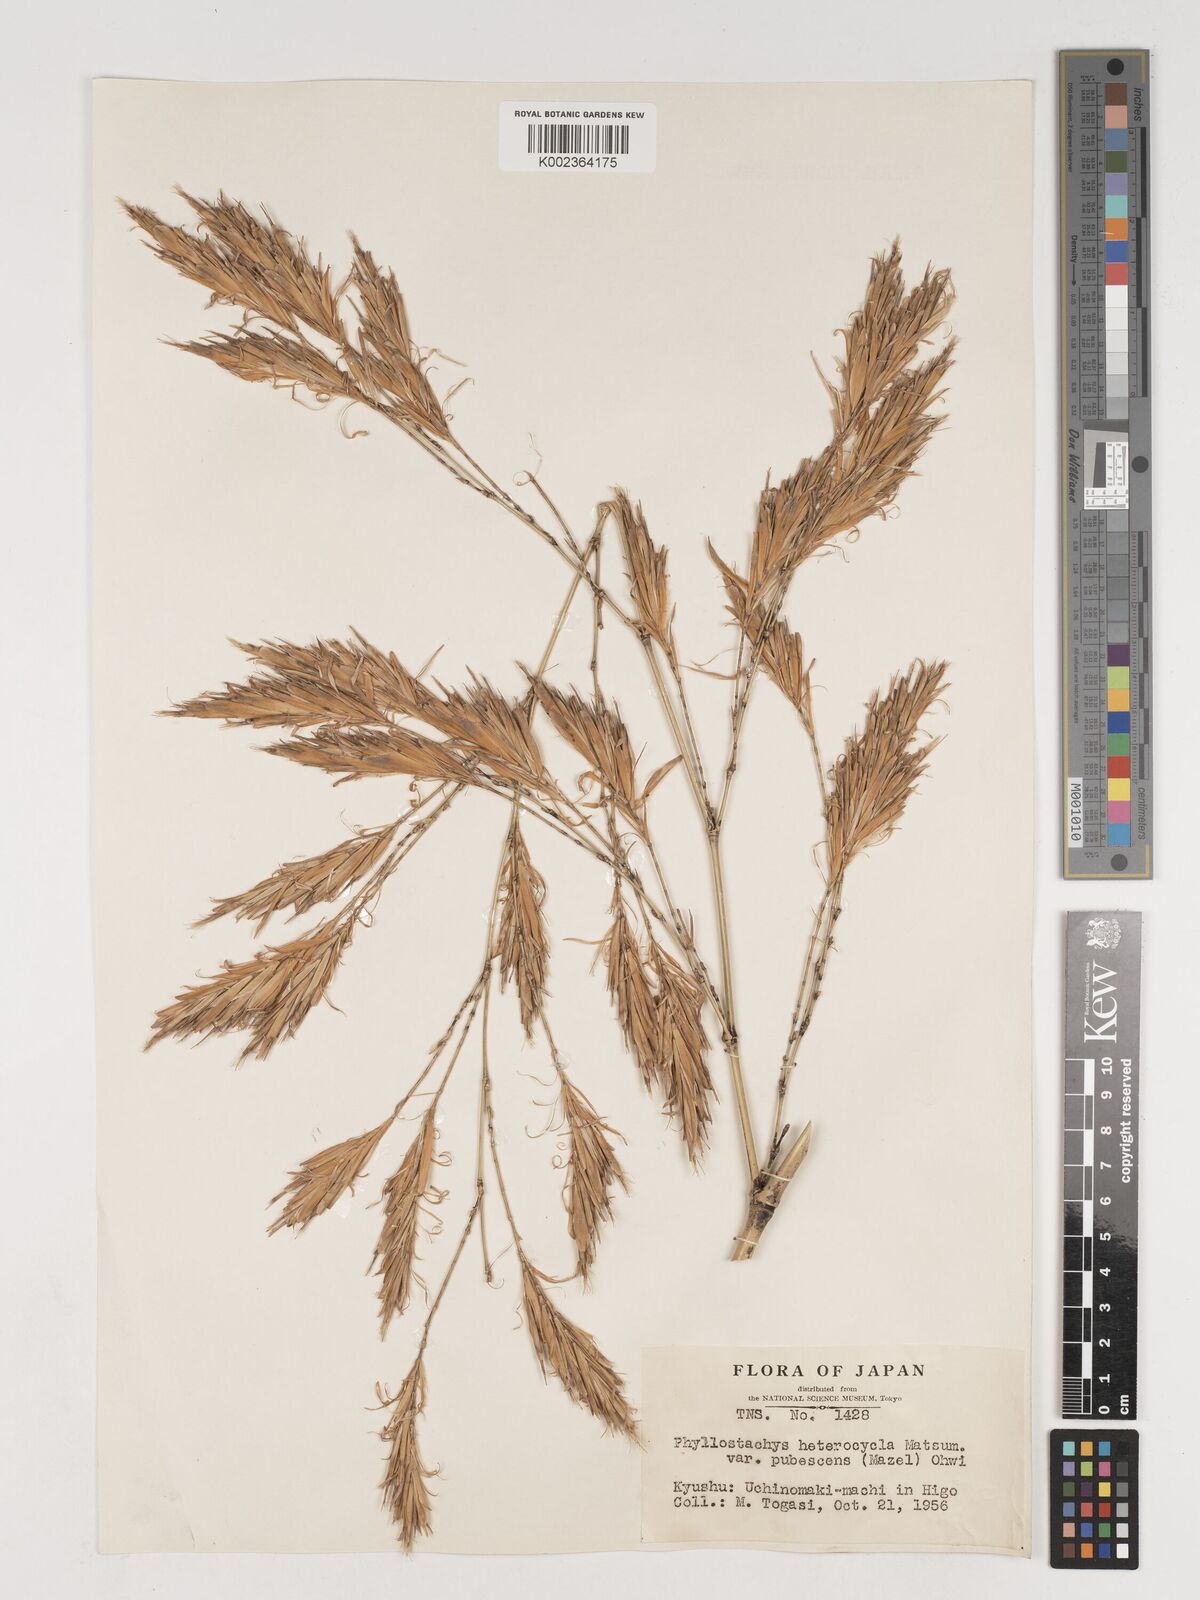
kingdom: Plantae
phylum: Tracheophyta
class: Liliopsida
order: Poales
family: Poaceae
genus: Phyllostachys
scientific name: Phyllostachys nidularia
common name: Broom bamboo
